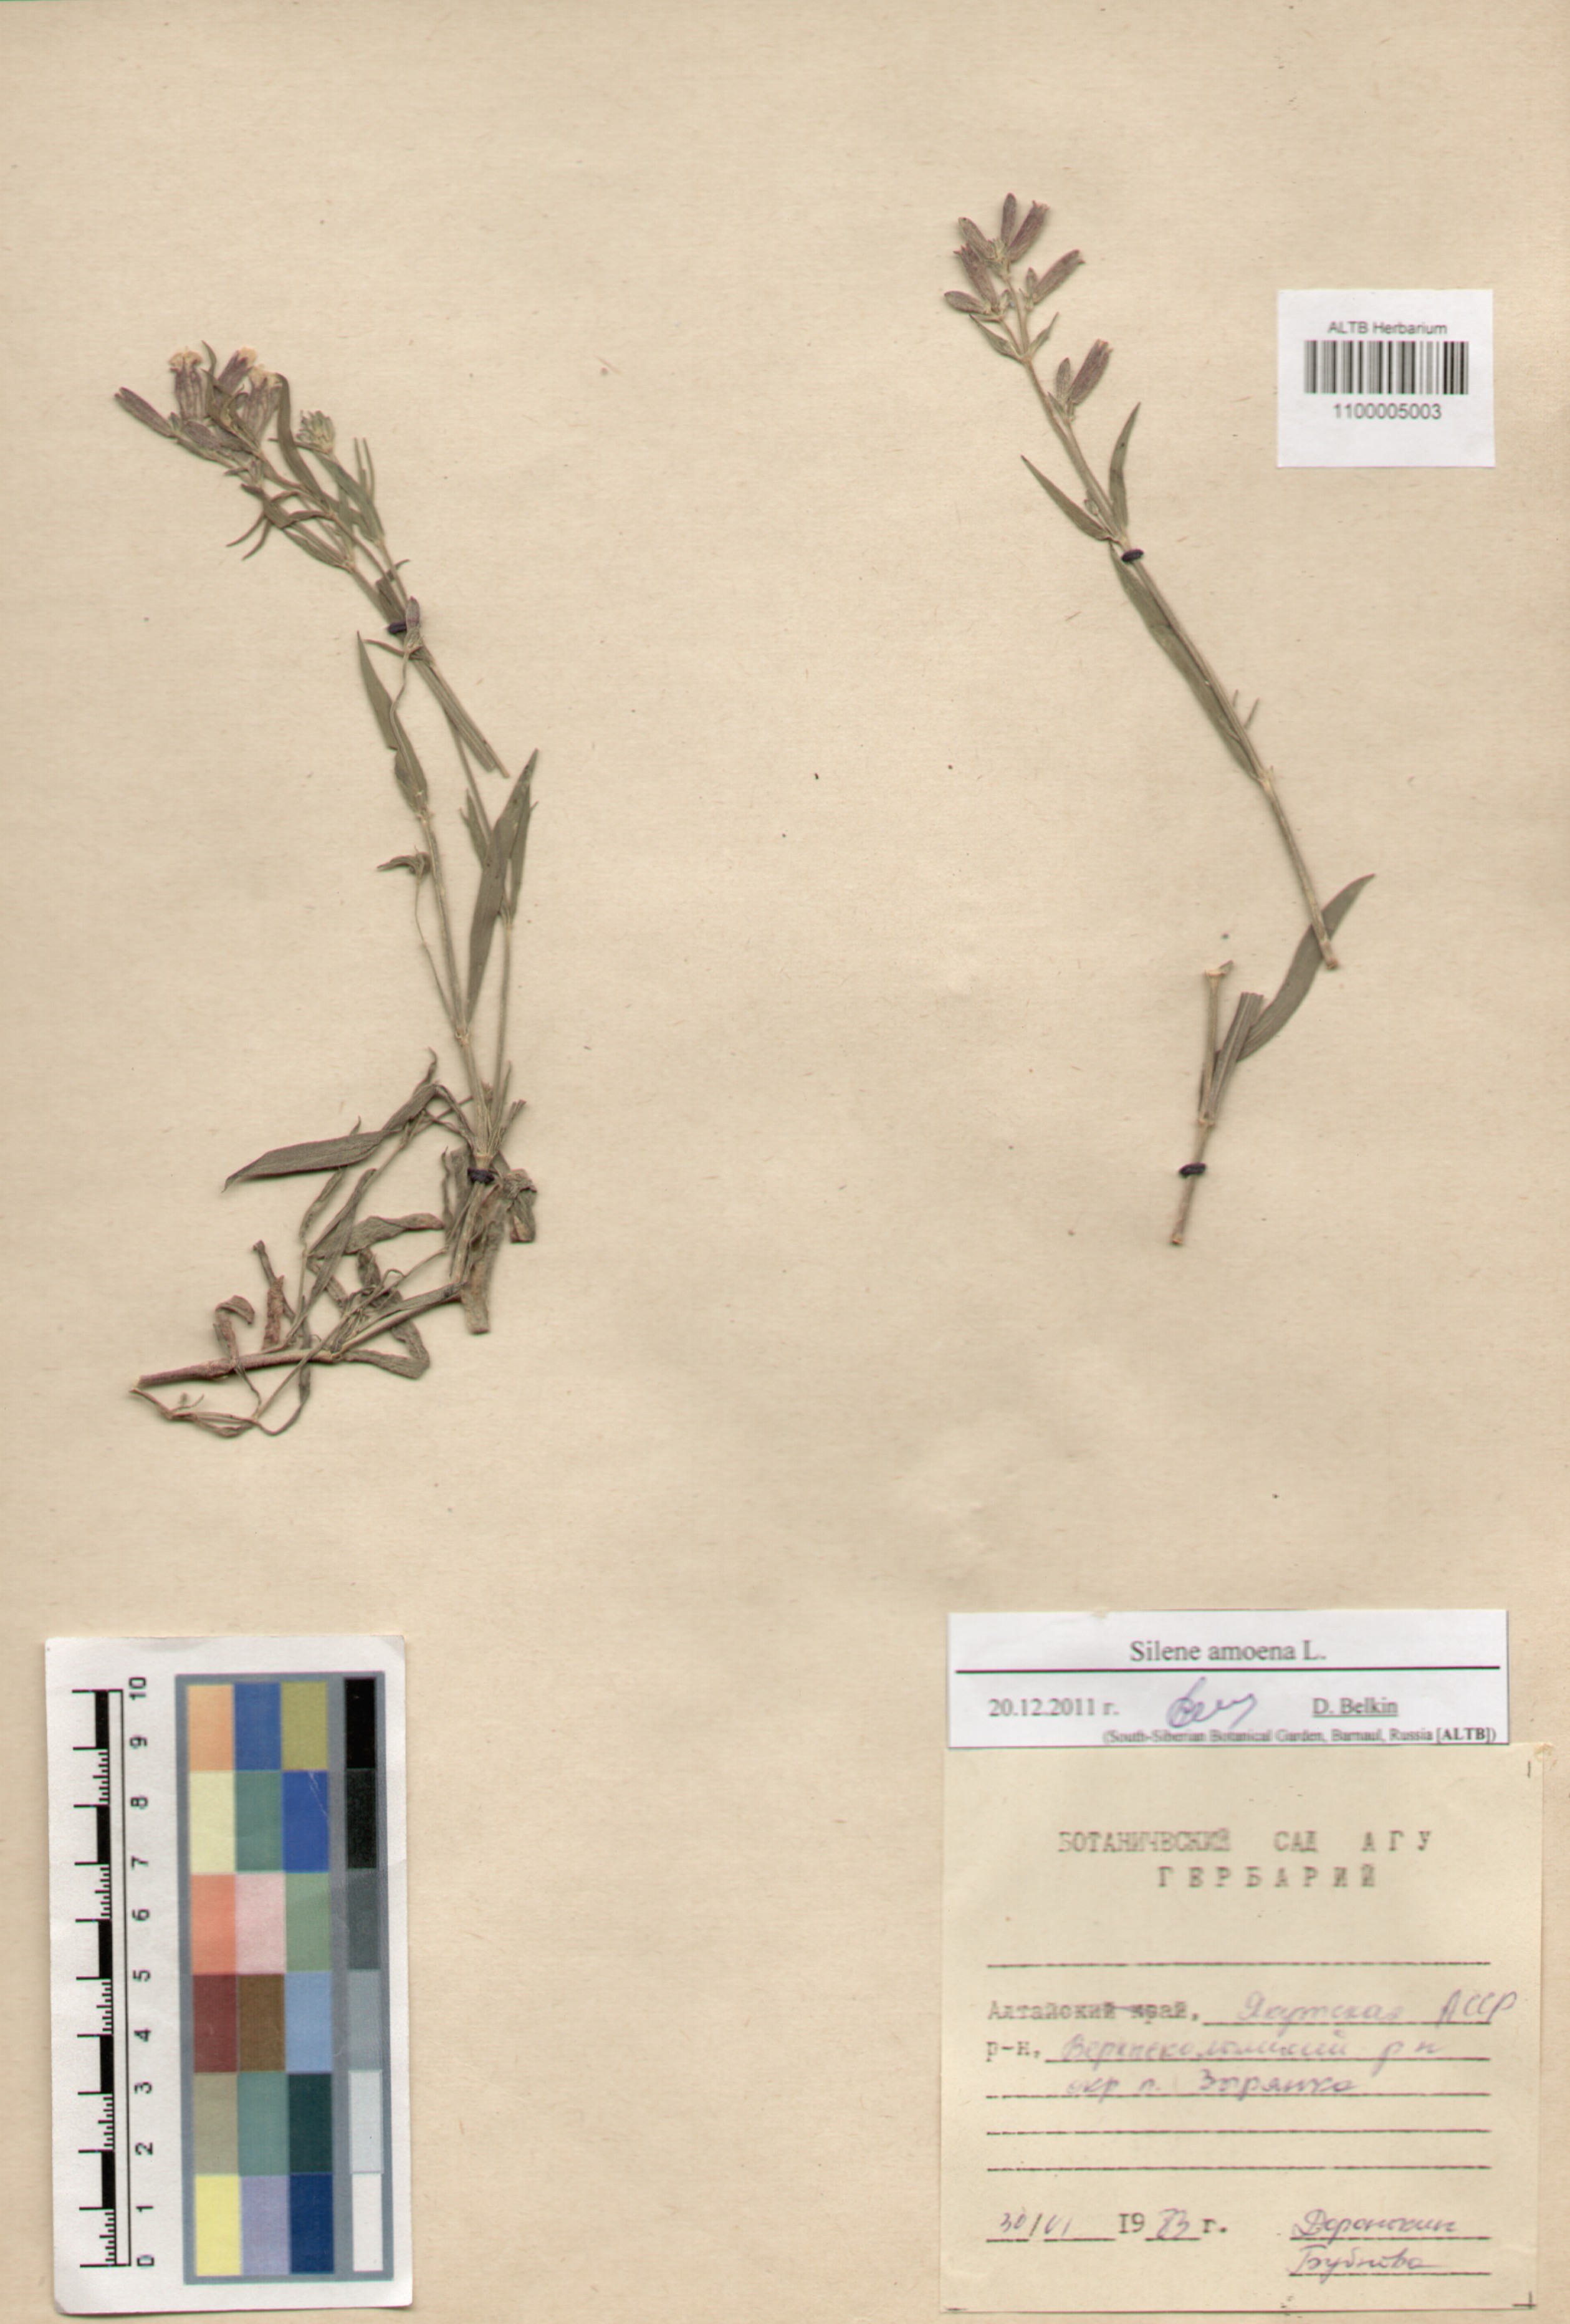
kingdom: Plantae
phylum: Tracheophyta
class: Magnoliopsida
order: Caryophyllales
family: Caryophyllaceae
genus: Silene
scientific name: Silene amoena
